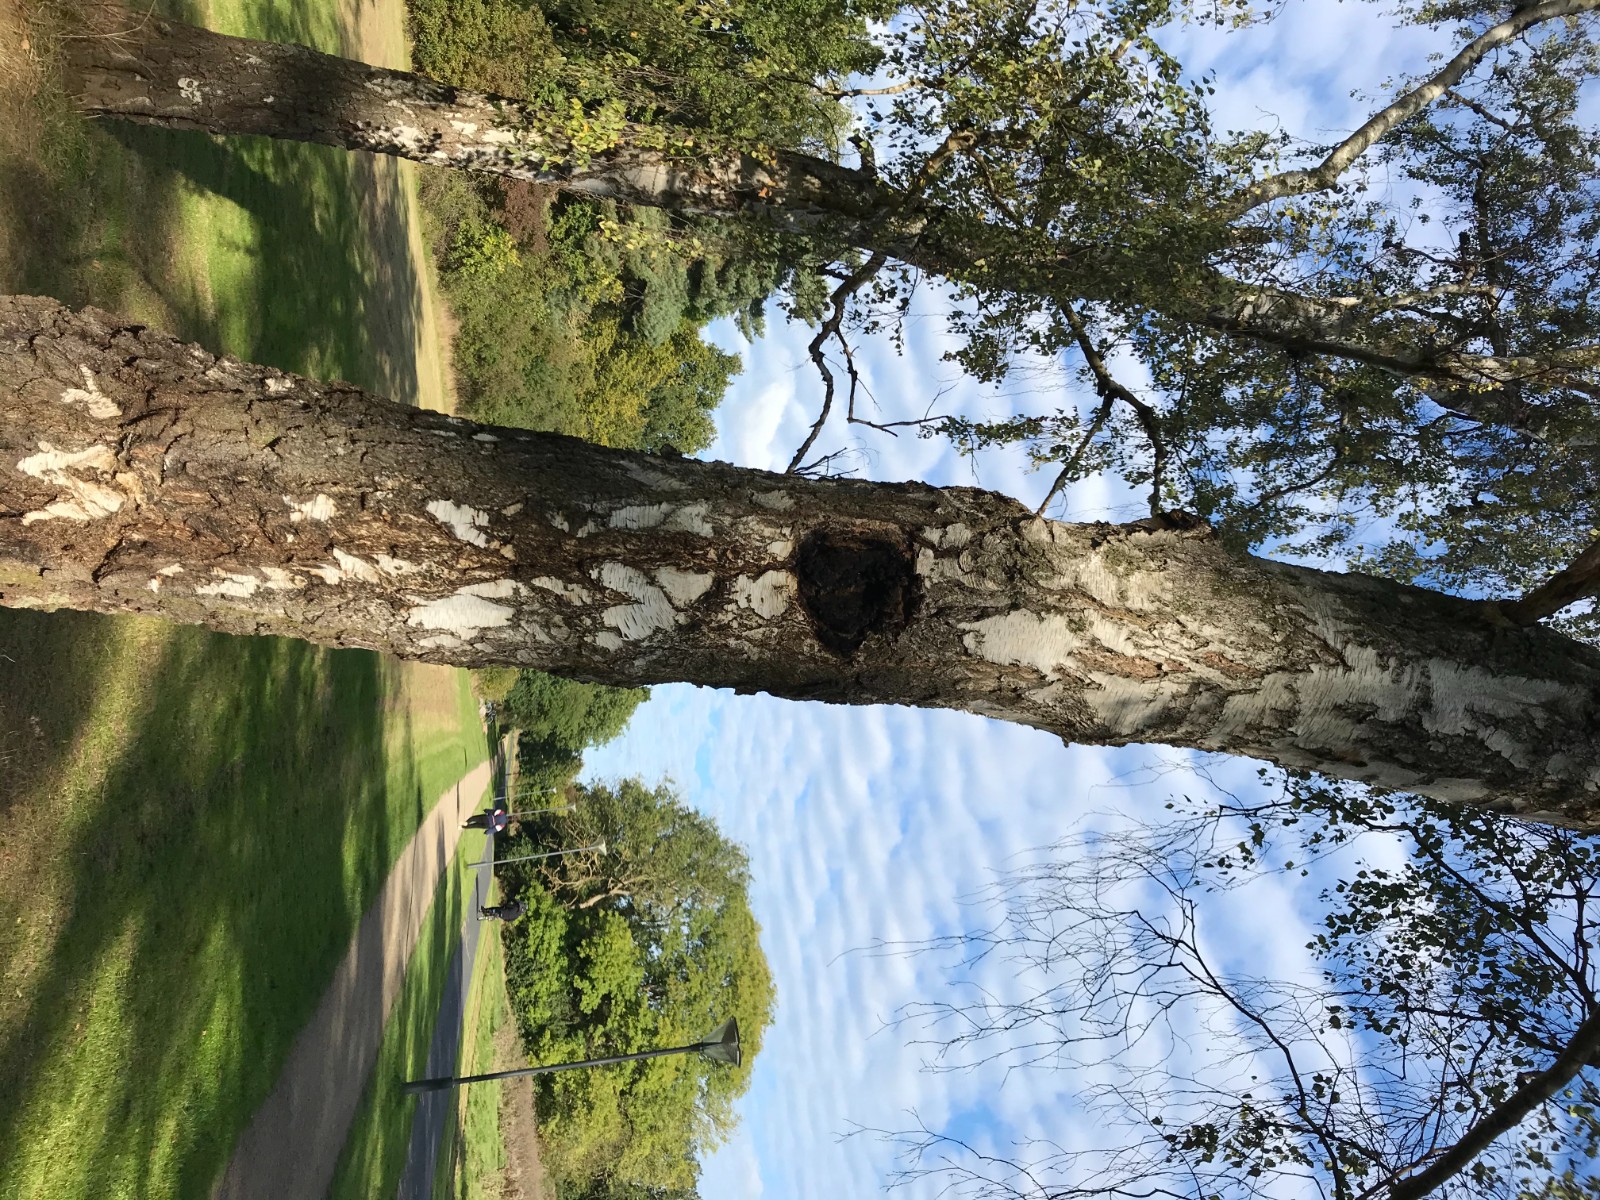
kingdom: Fungi
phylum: Basidiomycota
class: Agaricomycetes
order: Hymenochaetales
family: Hymenochaetaceae
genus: Inonotus
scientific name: Inonotus obliquus
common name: birke-spejlporesvamp
